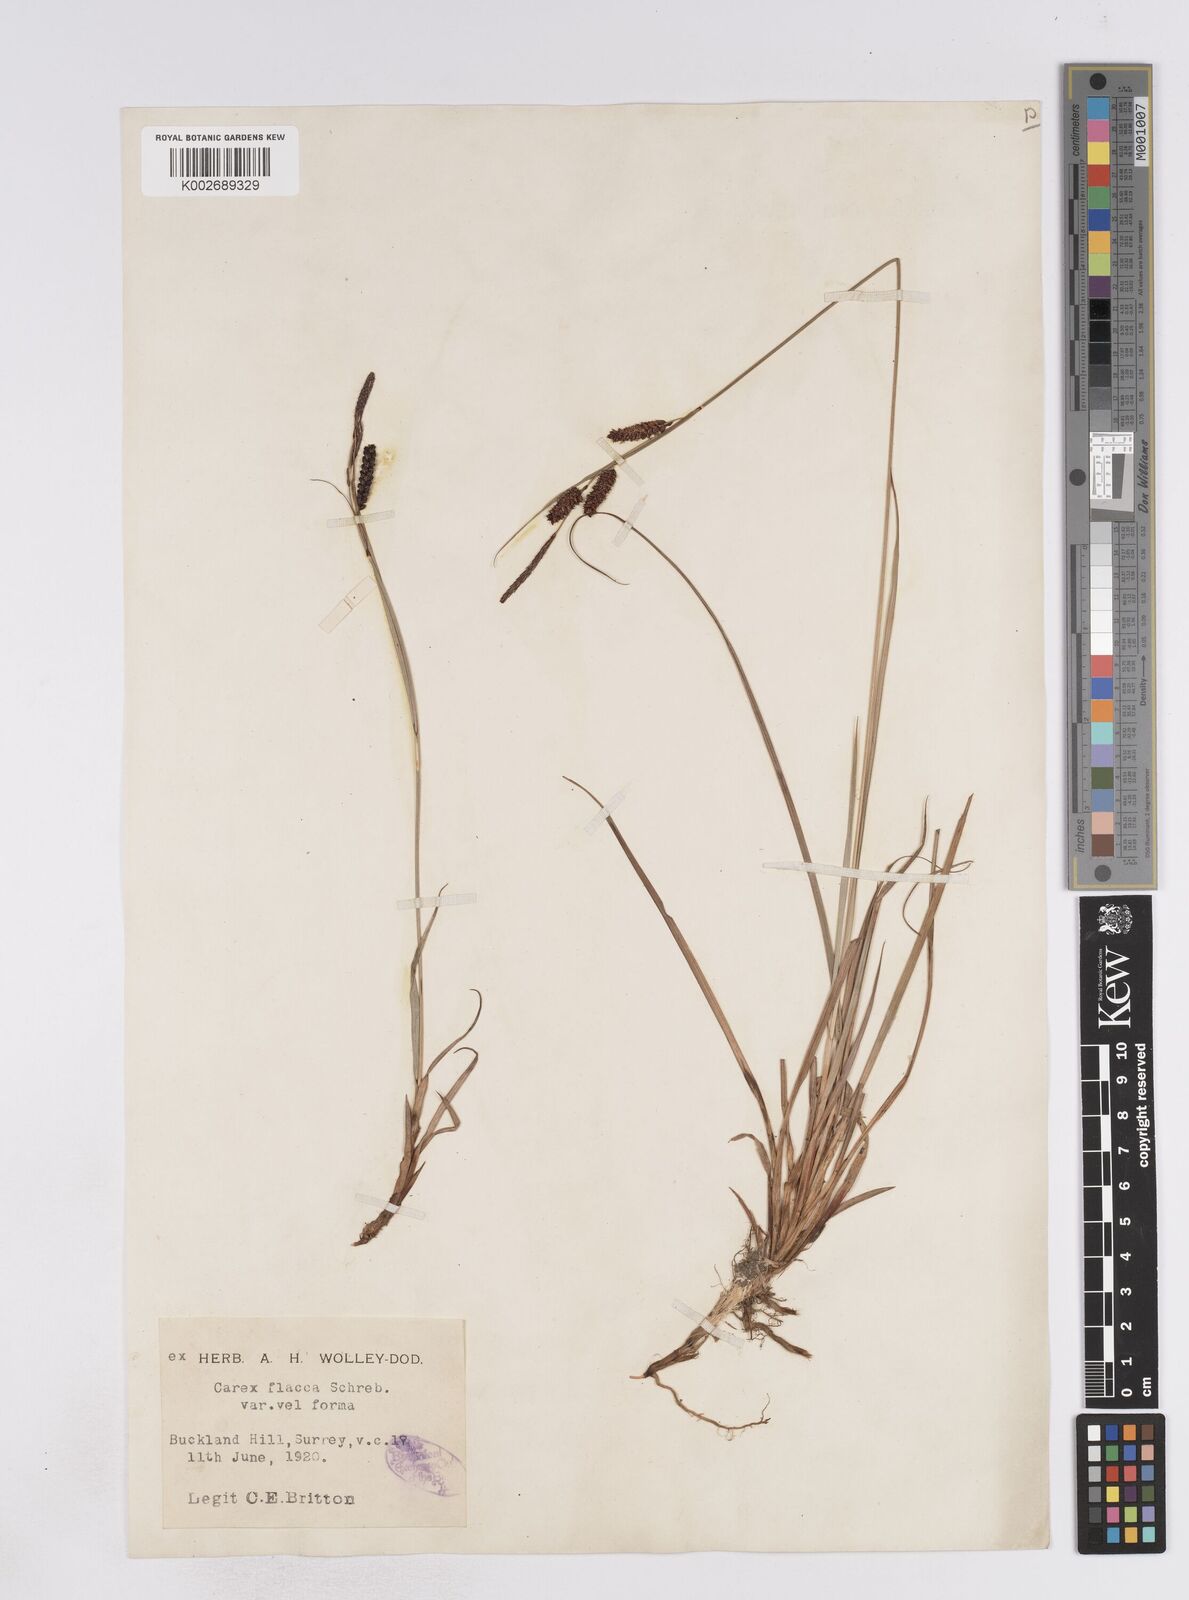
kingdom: Plantae
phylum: Tracheophyta
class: Liliopsida
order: Poales
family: Cyperaceae
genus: Carex
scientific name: Carex flacca
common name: Glaucous sedge
